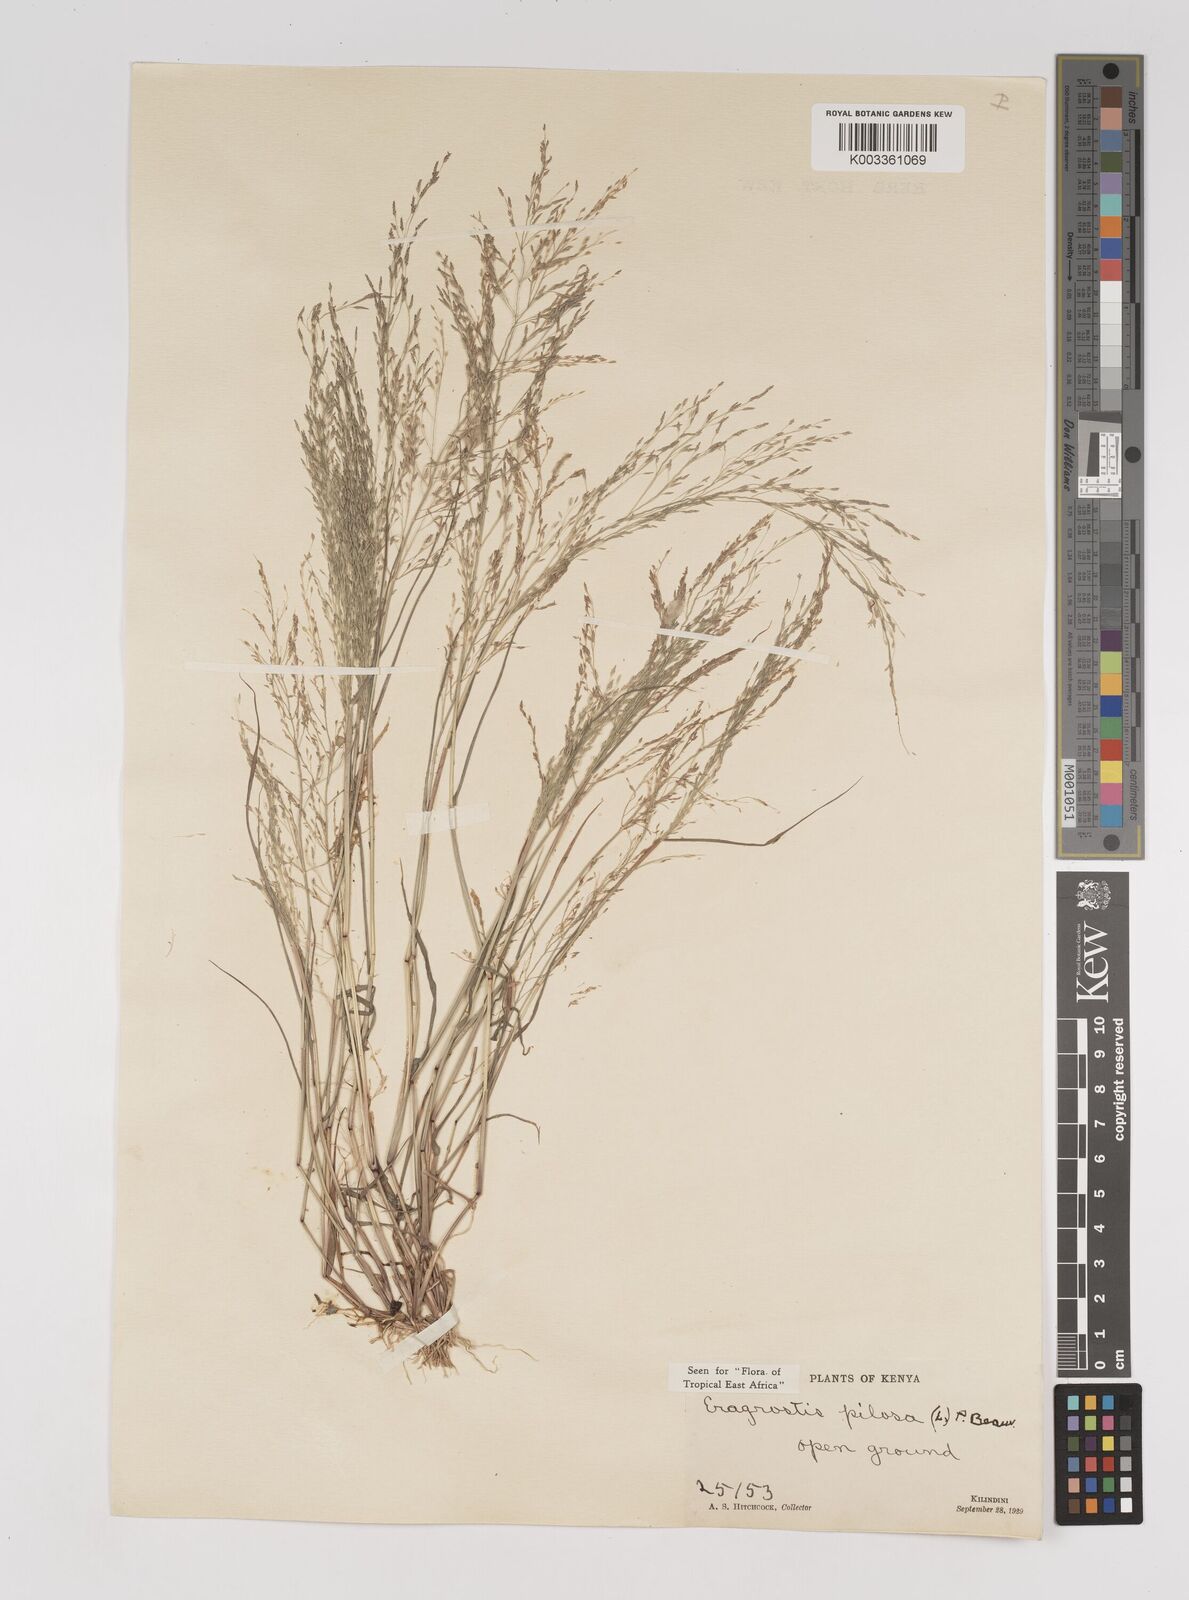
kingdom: Plantae
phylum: Tracheophyta
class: Liliopsida
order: Poales
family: Poaceae
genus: Eragrostis
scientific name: Eragrostis aethiopica
